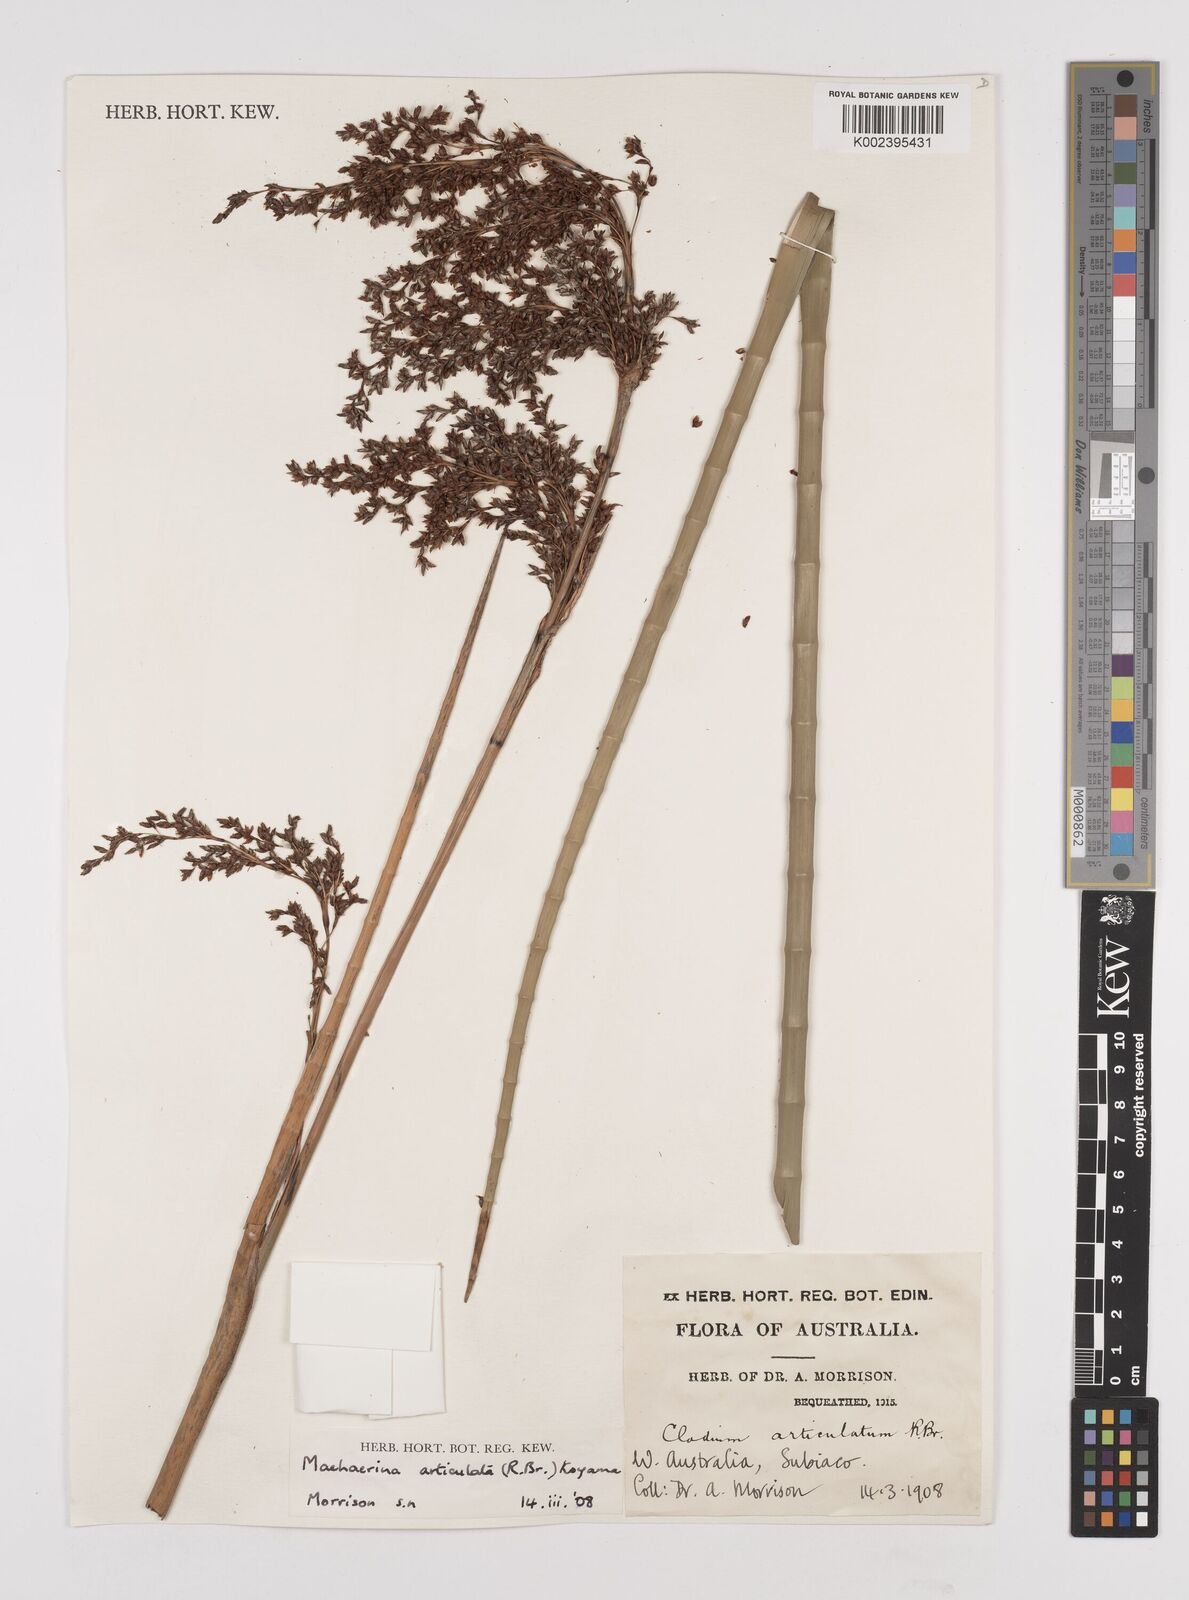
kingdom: Plantae
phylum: Tracheophyta
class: Liliopsida
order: Poales
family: Cyperaceae
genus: Machaerina
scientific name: Machaerina articulata
